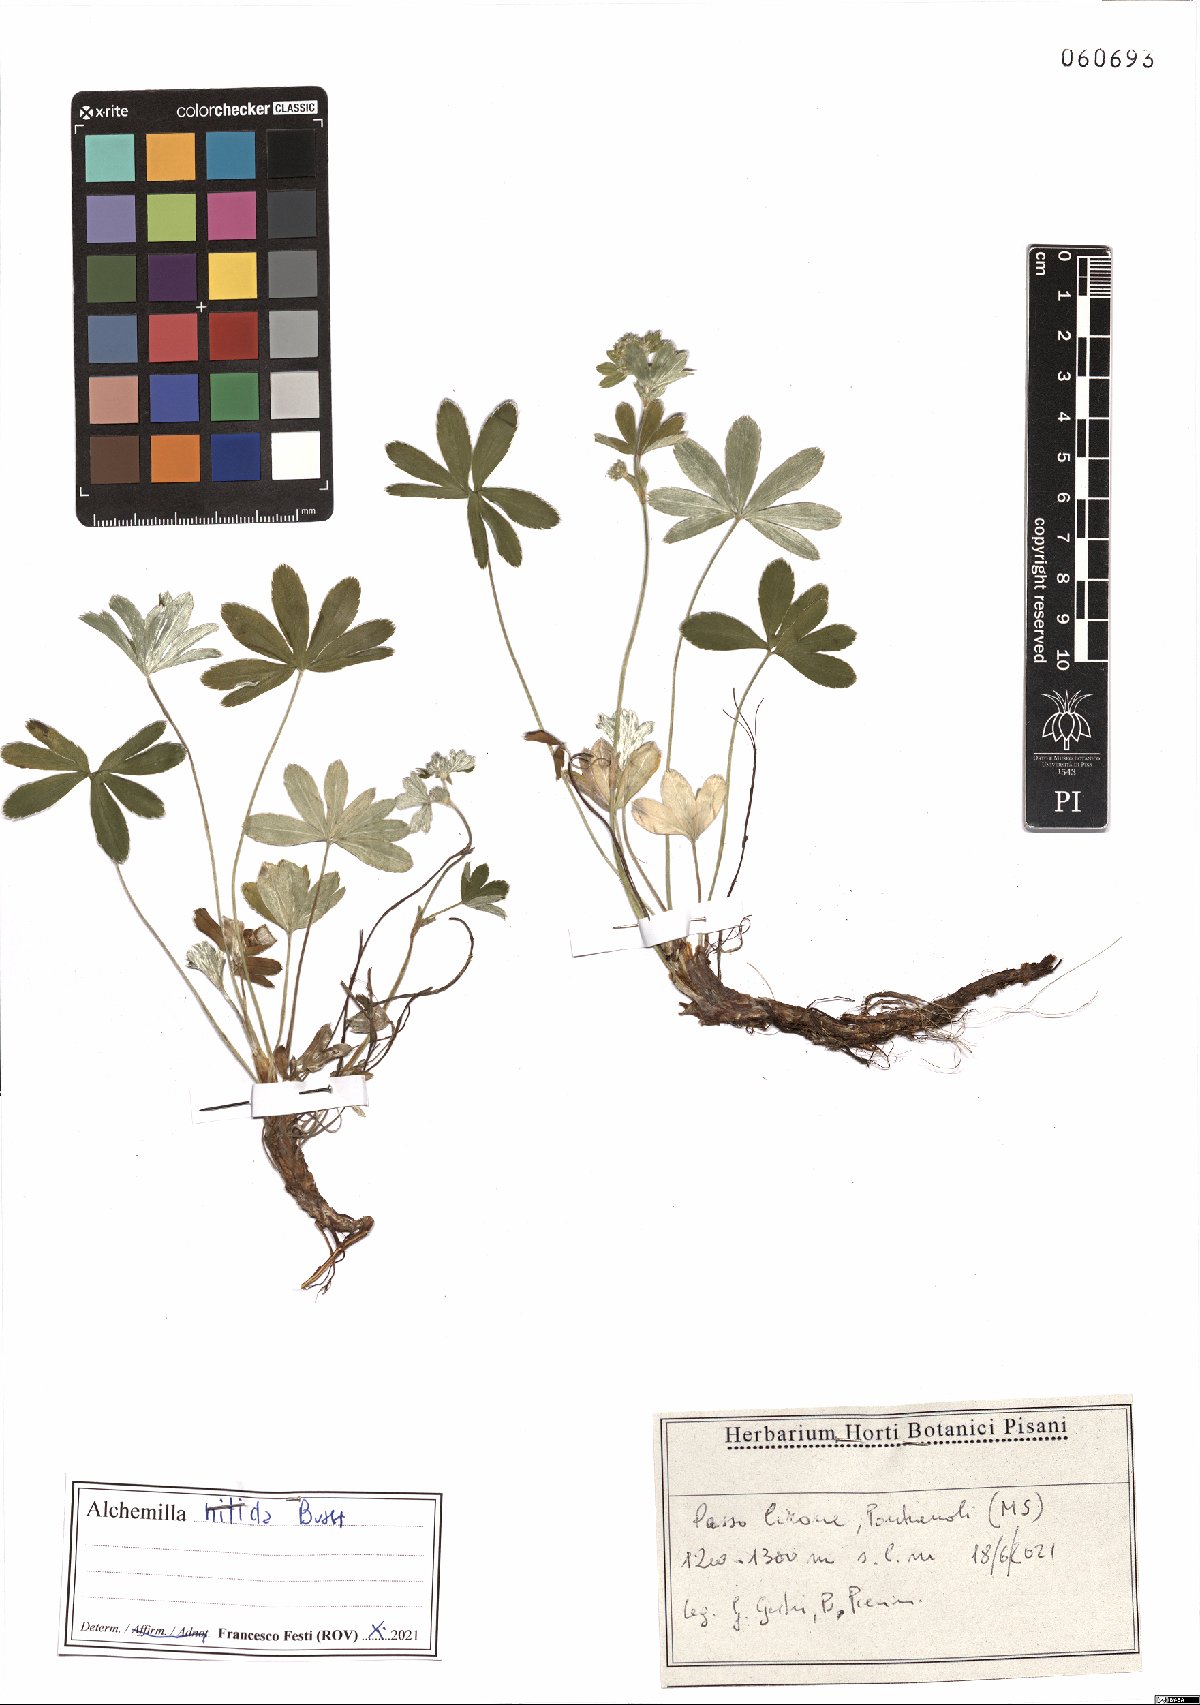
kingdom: Plantae
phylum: Tracheophyta
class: Magnoliopsida
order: Rosales
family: Rosaceae
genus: Alchemilla
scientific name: Alchemilla nitida
